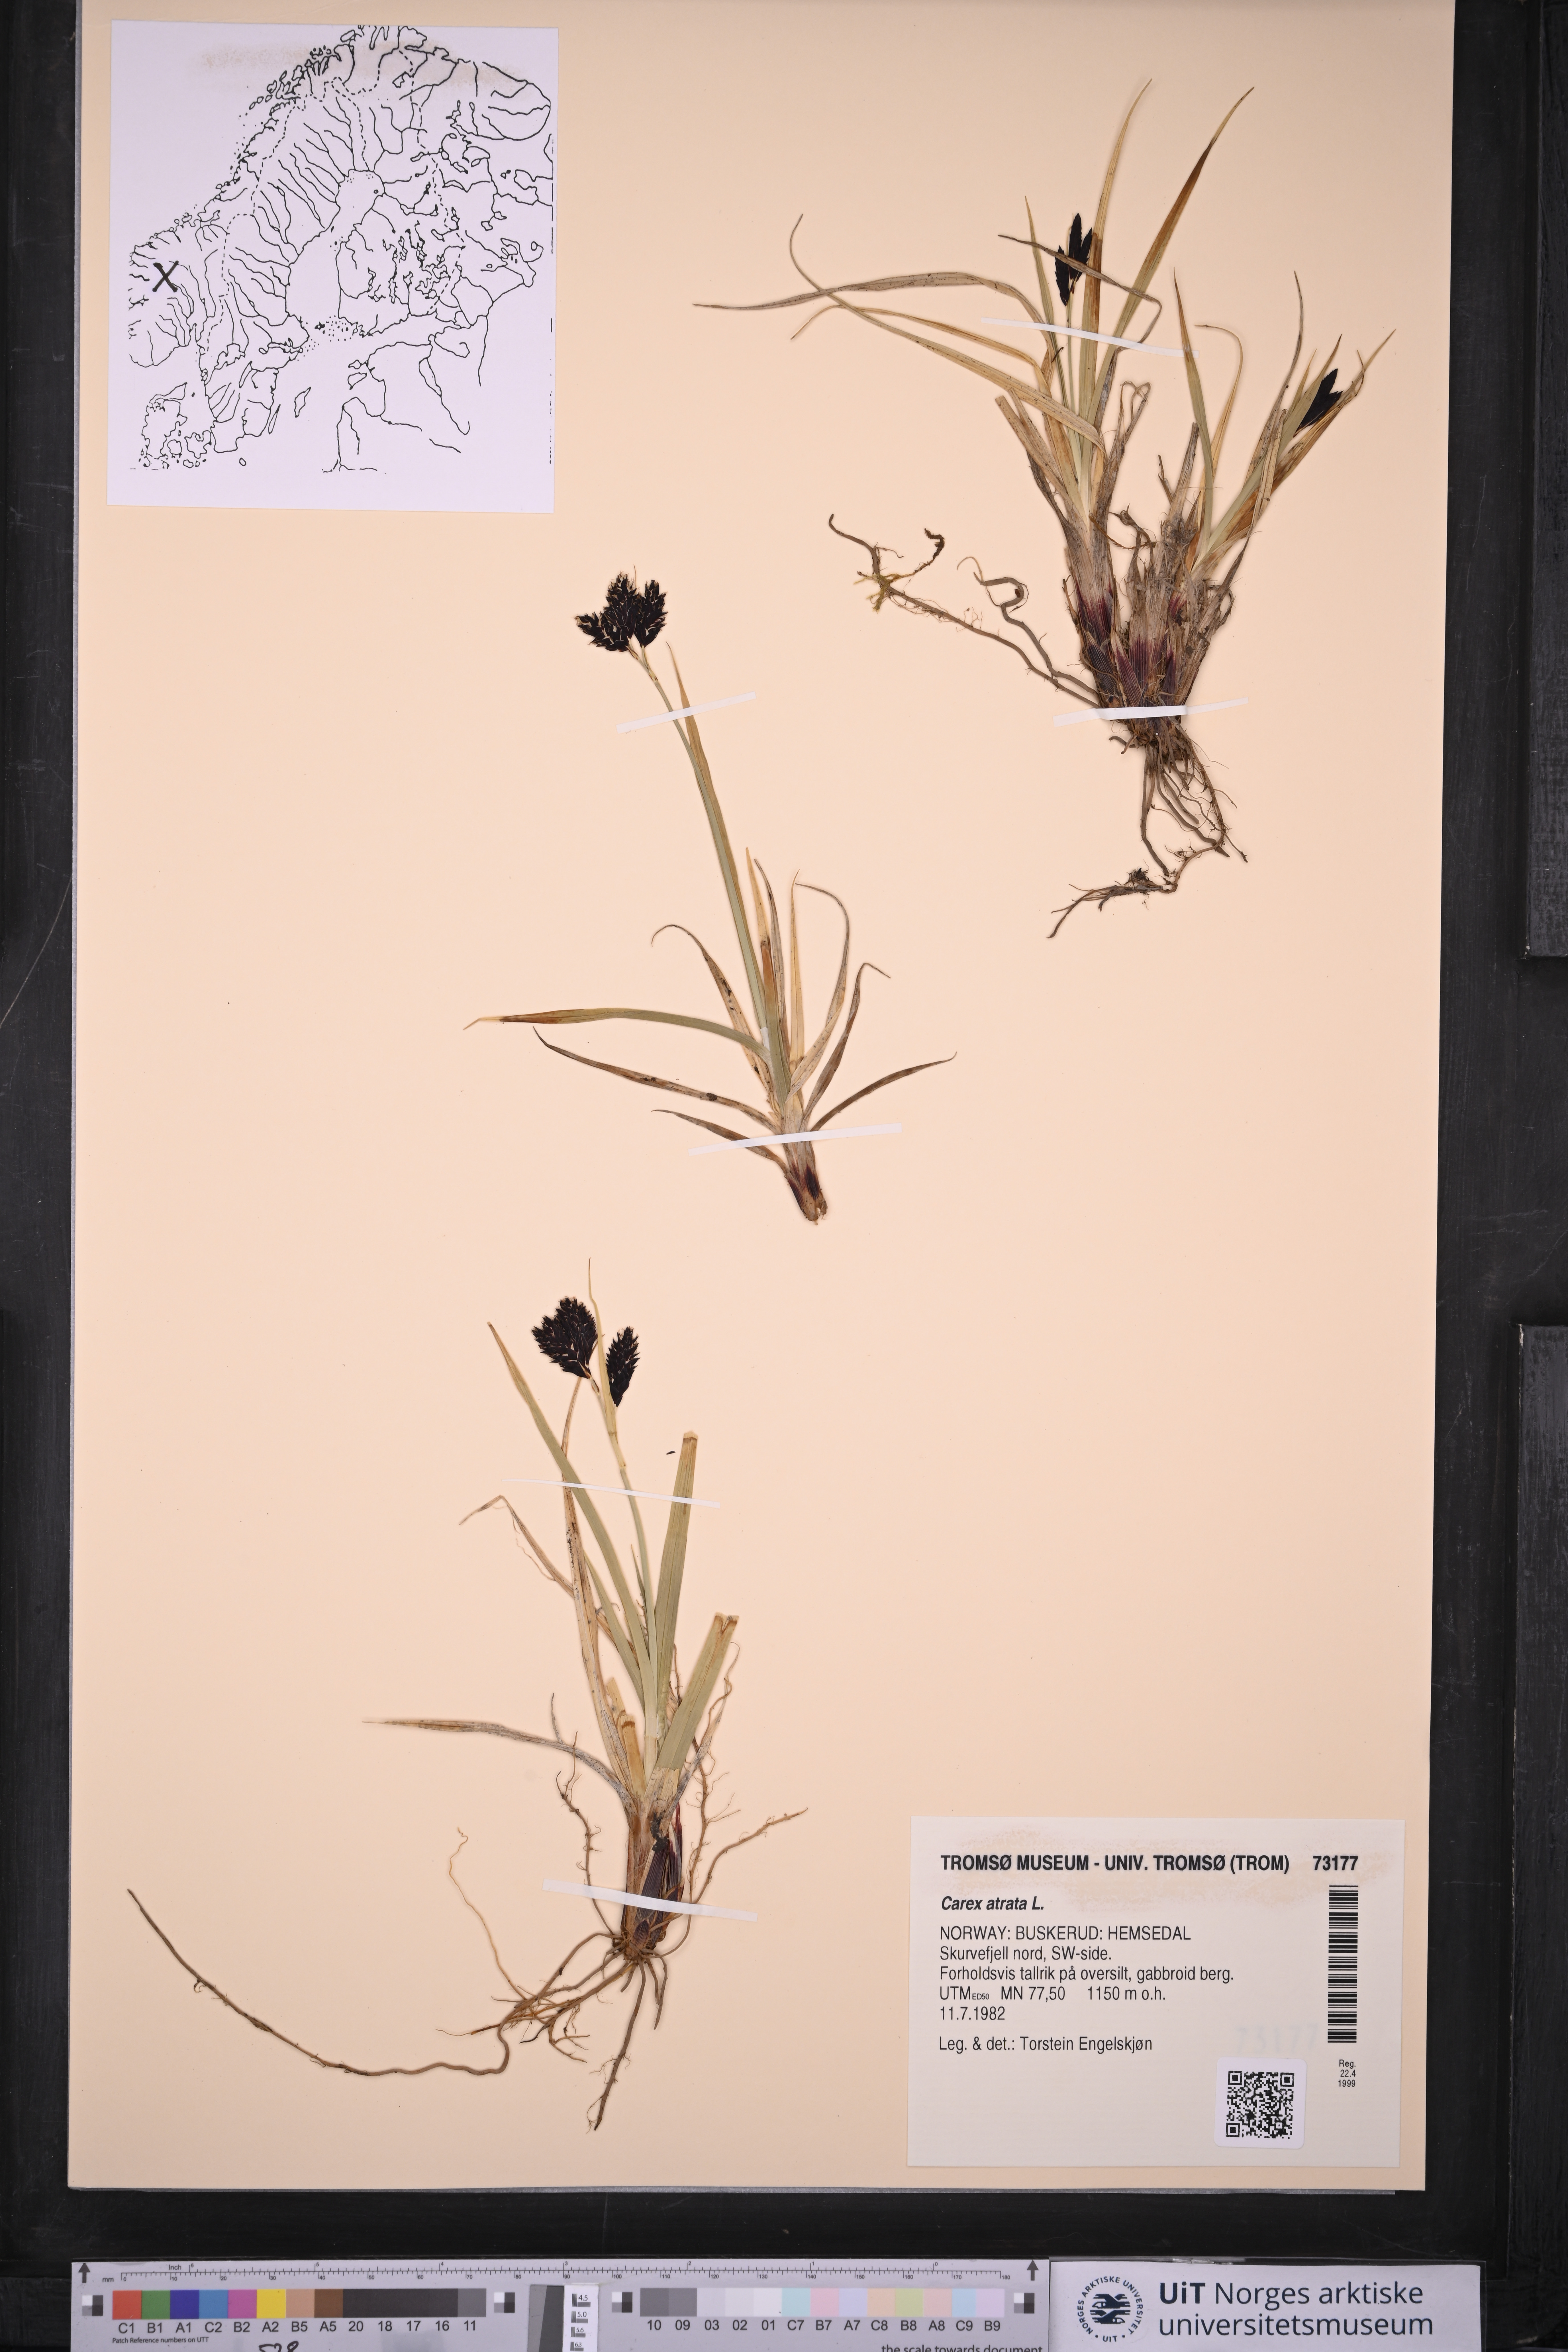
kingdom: Plantae
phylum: Tracheophyta
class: Liliopsida
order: Poales
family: Cyperaceae
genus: Carex
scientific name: Carex atrata
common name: Black alpine sedge
